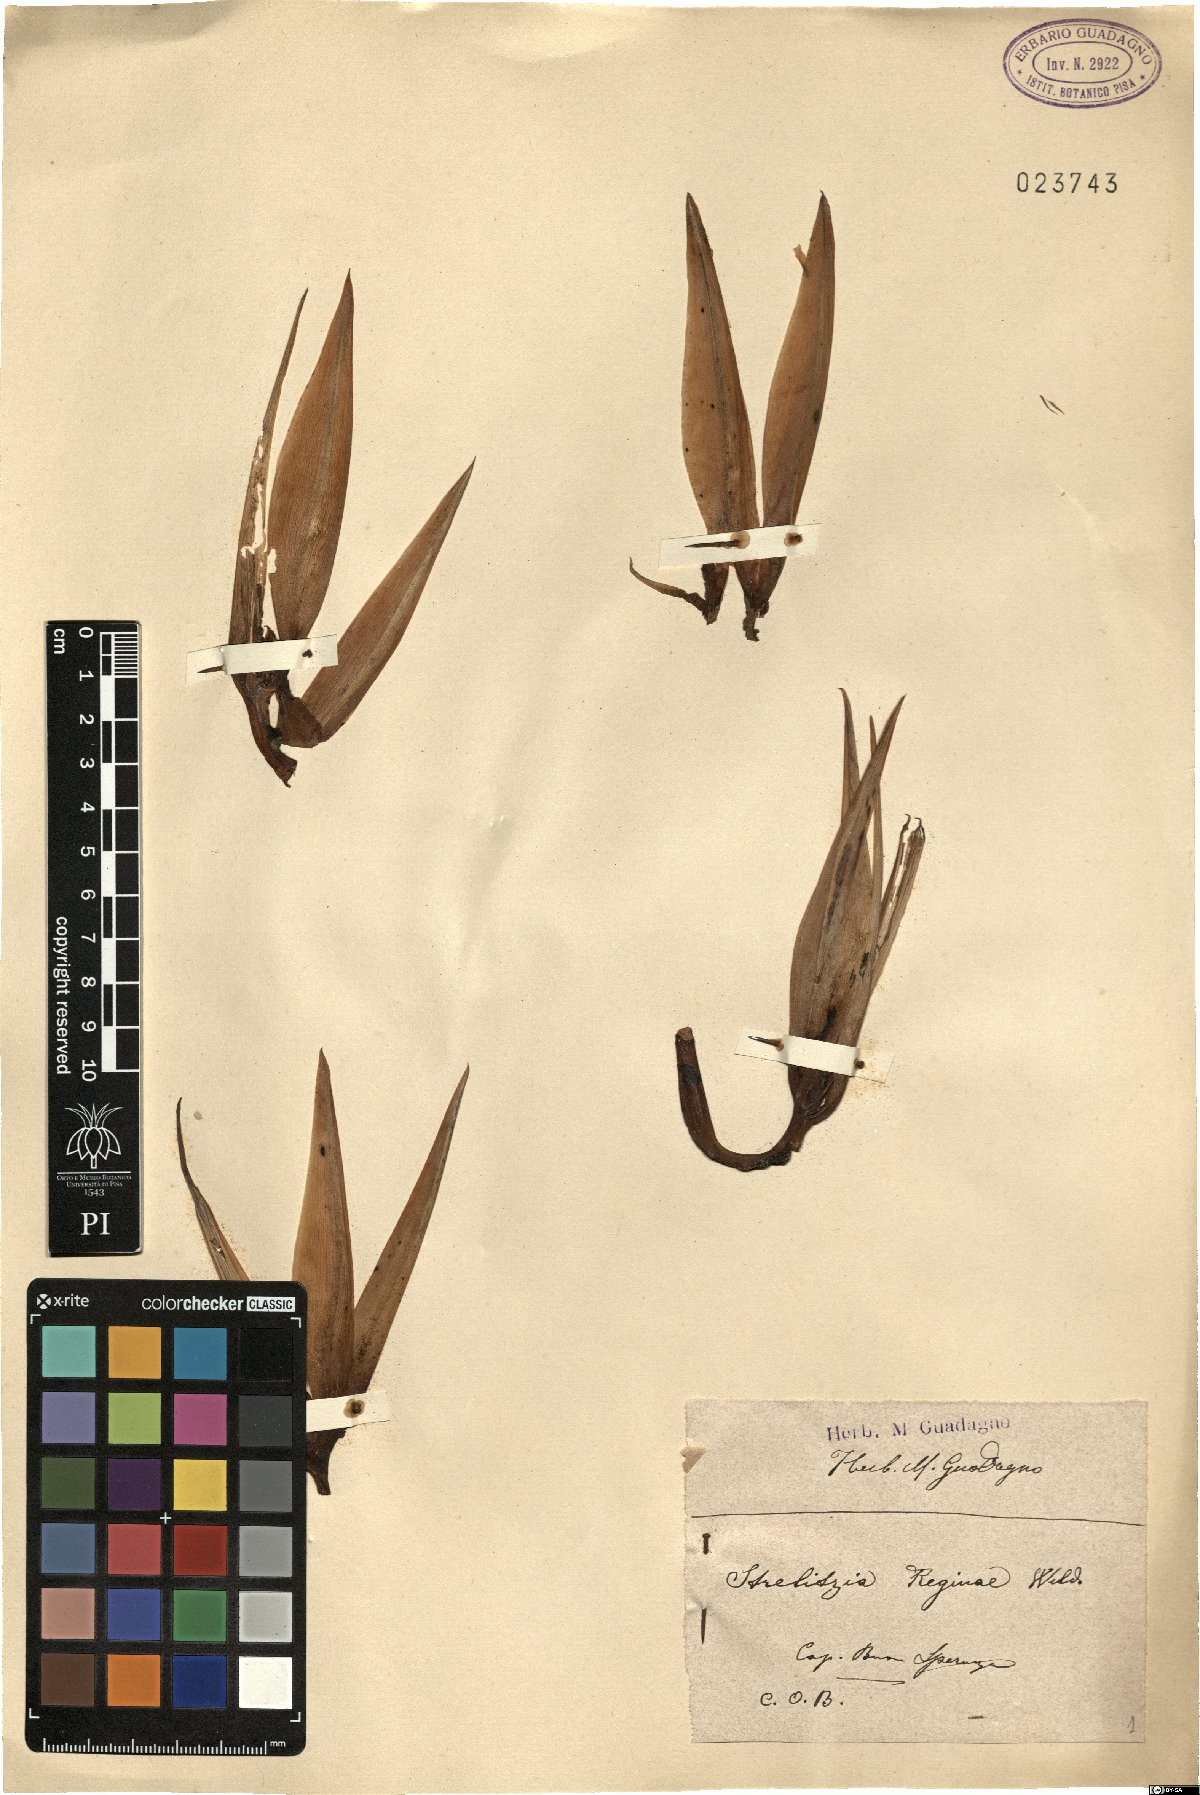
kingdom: Plantae
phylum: Tracheophyta
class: Liliopsida
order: Zingiberales
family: Strelitziaceae
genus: Strelitzia
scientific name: Strelitzia reginae
